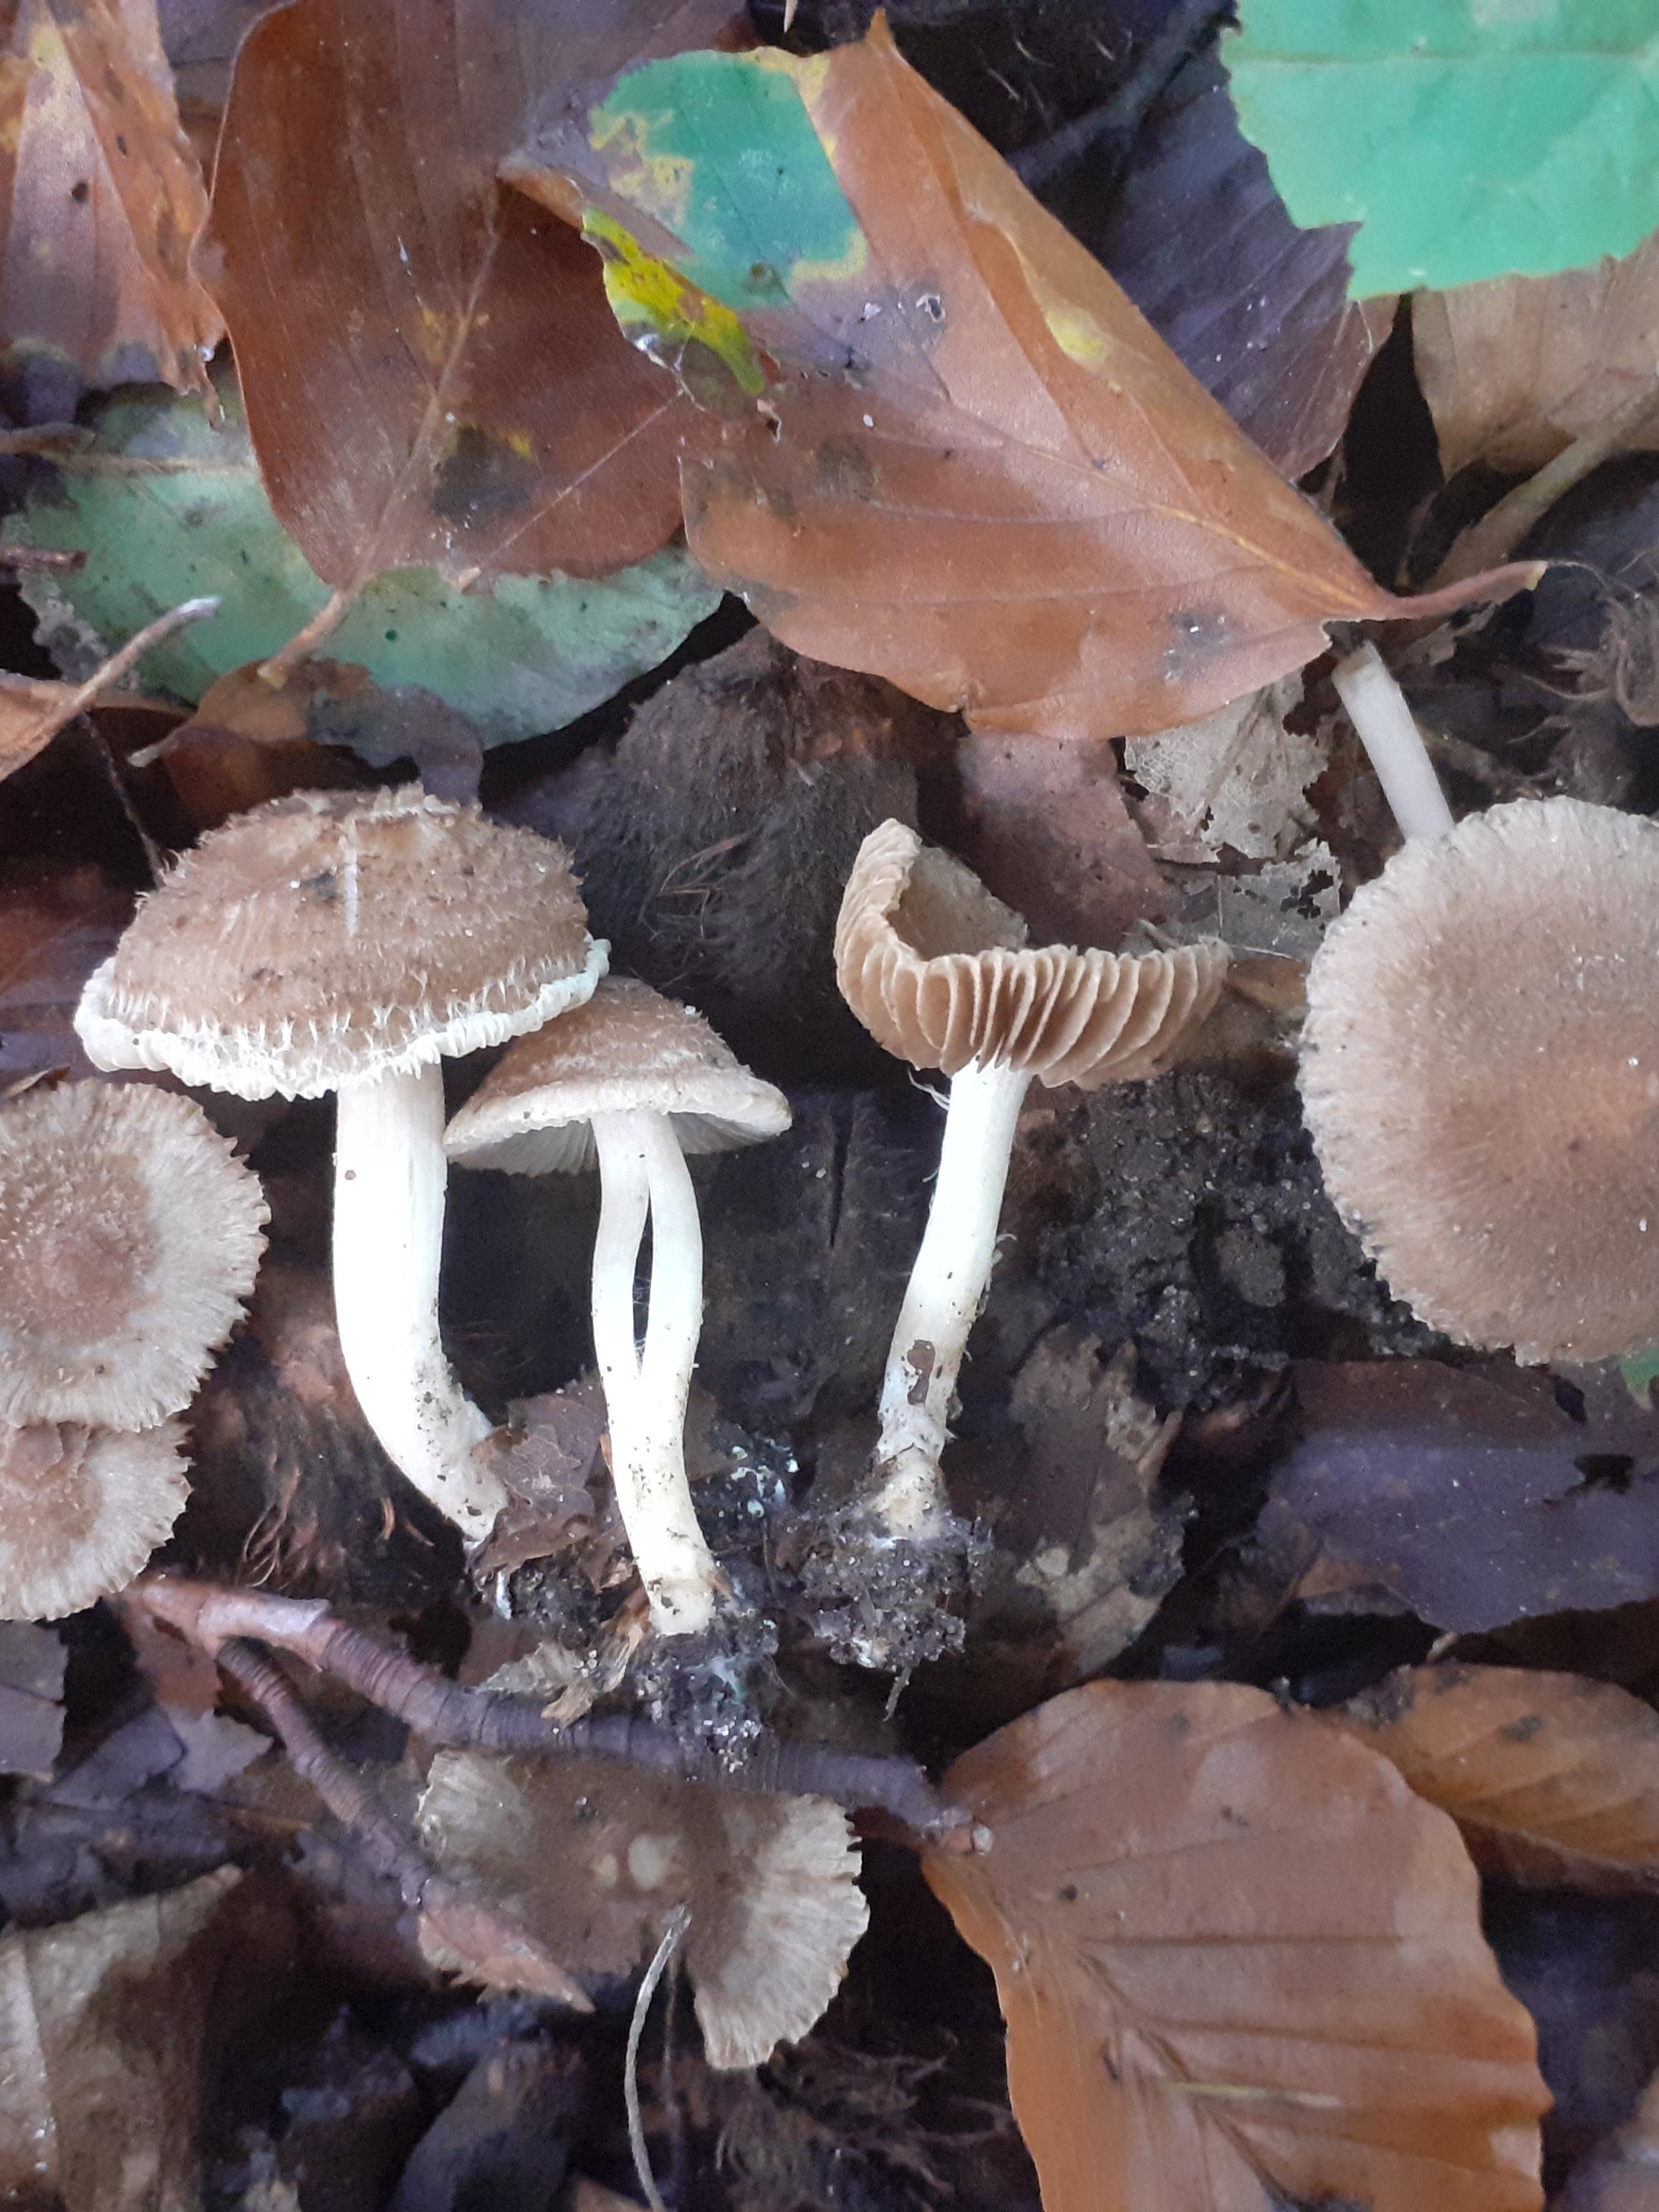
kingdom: Fungi
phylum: Basidiomycota
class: Agaricomycetes
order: Agaricales
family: Inocybaceae
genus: Inocybe
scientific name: Inocybe
